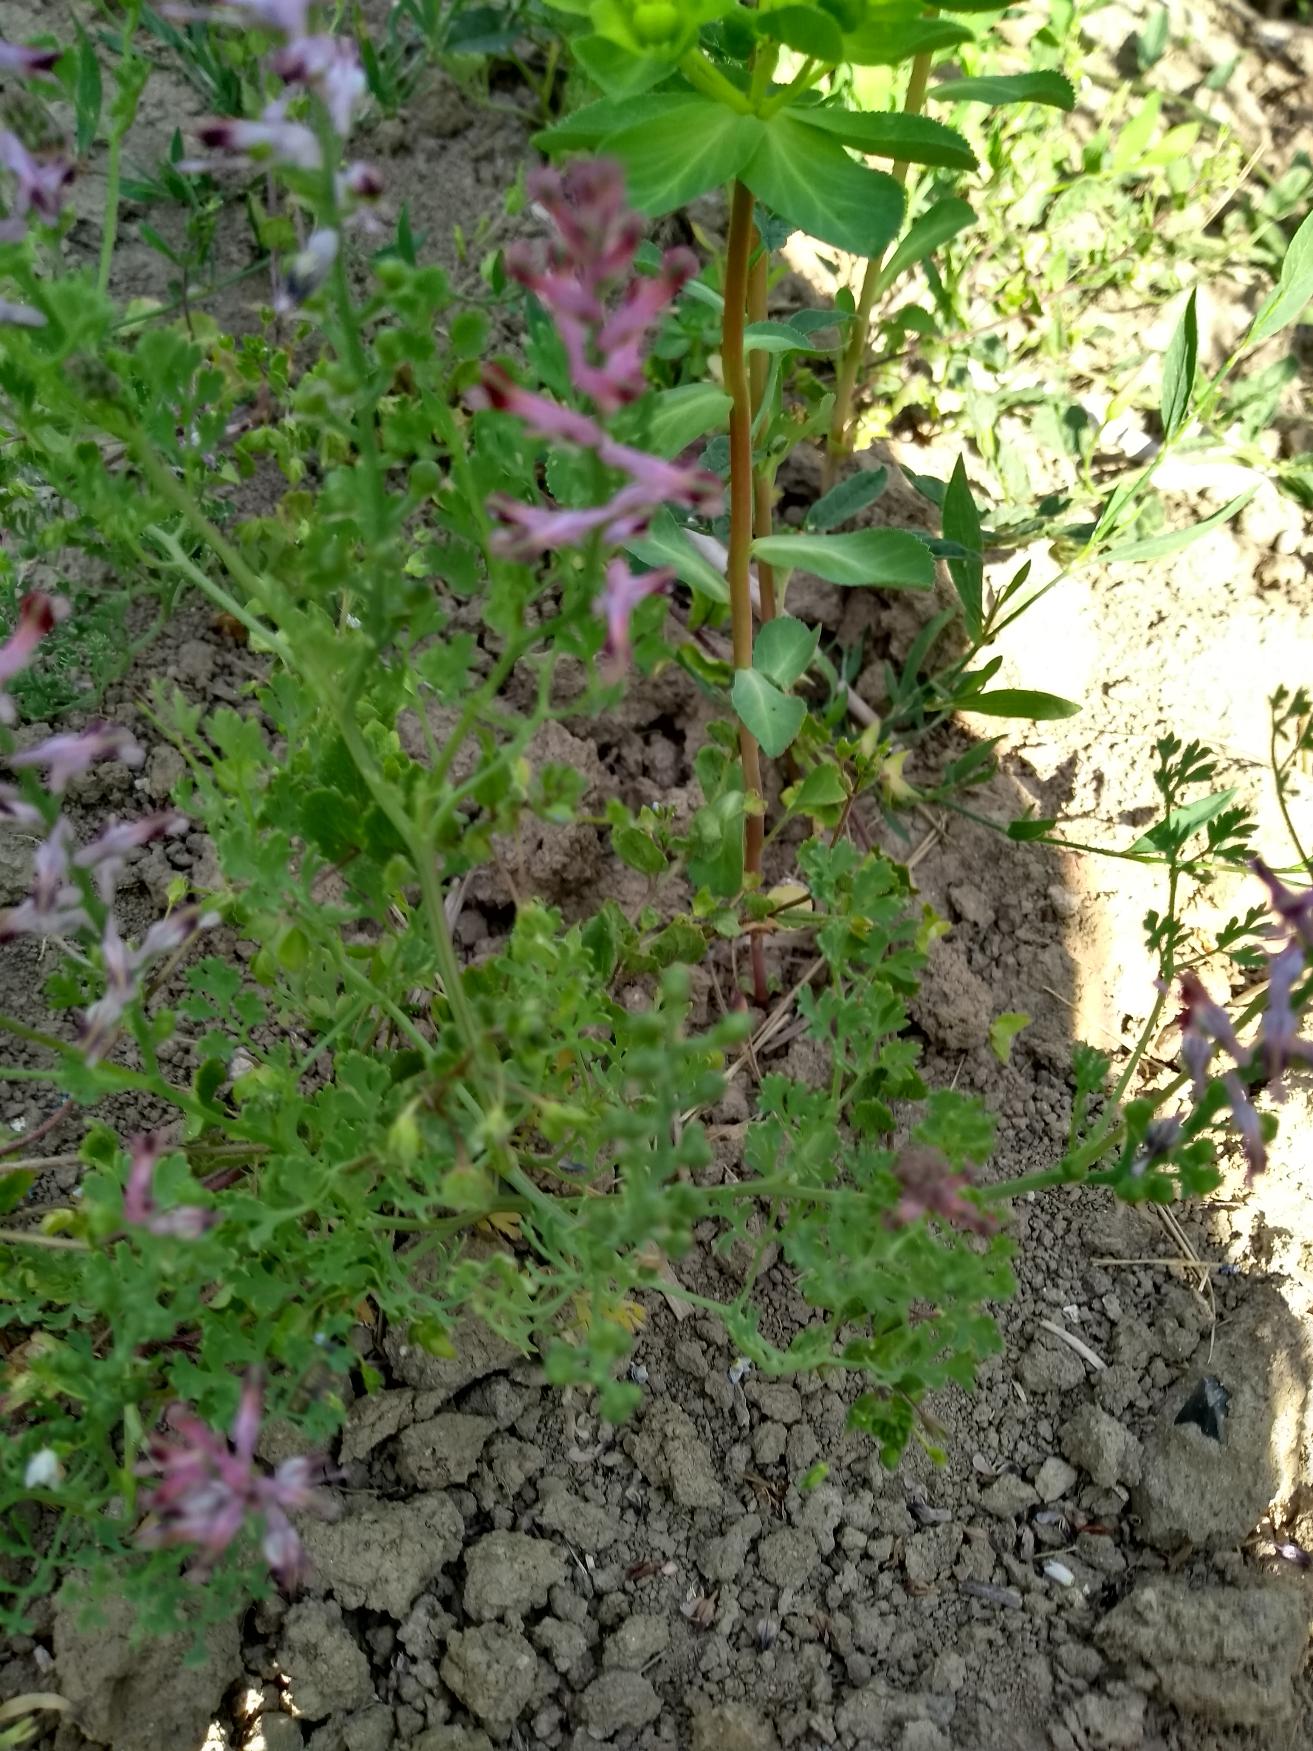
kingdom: Plantae
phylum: Tracheophyta
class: Magnoliopsida
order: Ranunculales
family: Papaveraceae
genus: Fumaria
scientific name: Fumaria officinalis
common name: Læge-jordrøg
